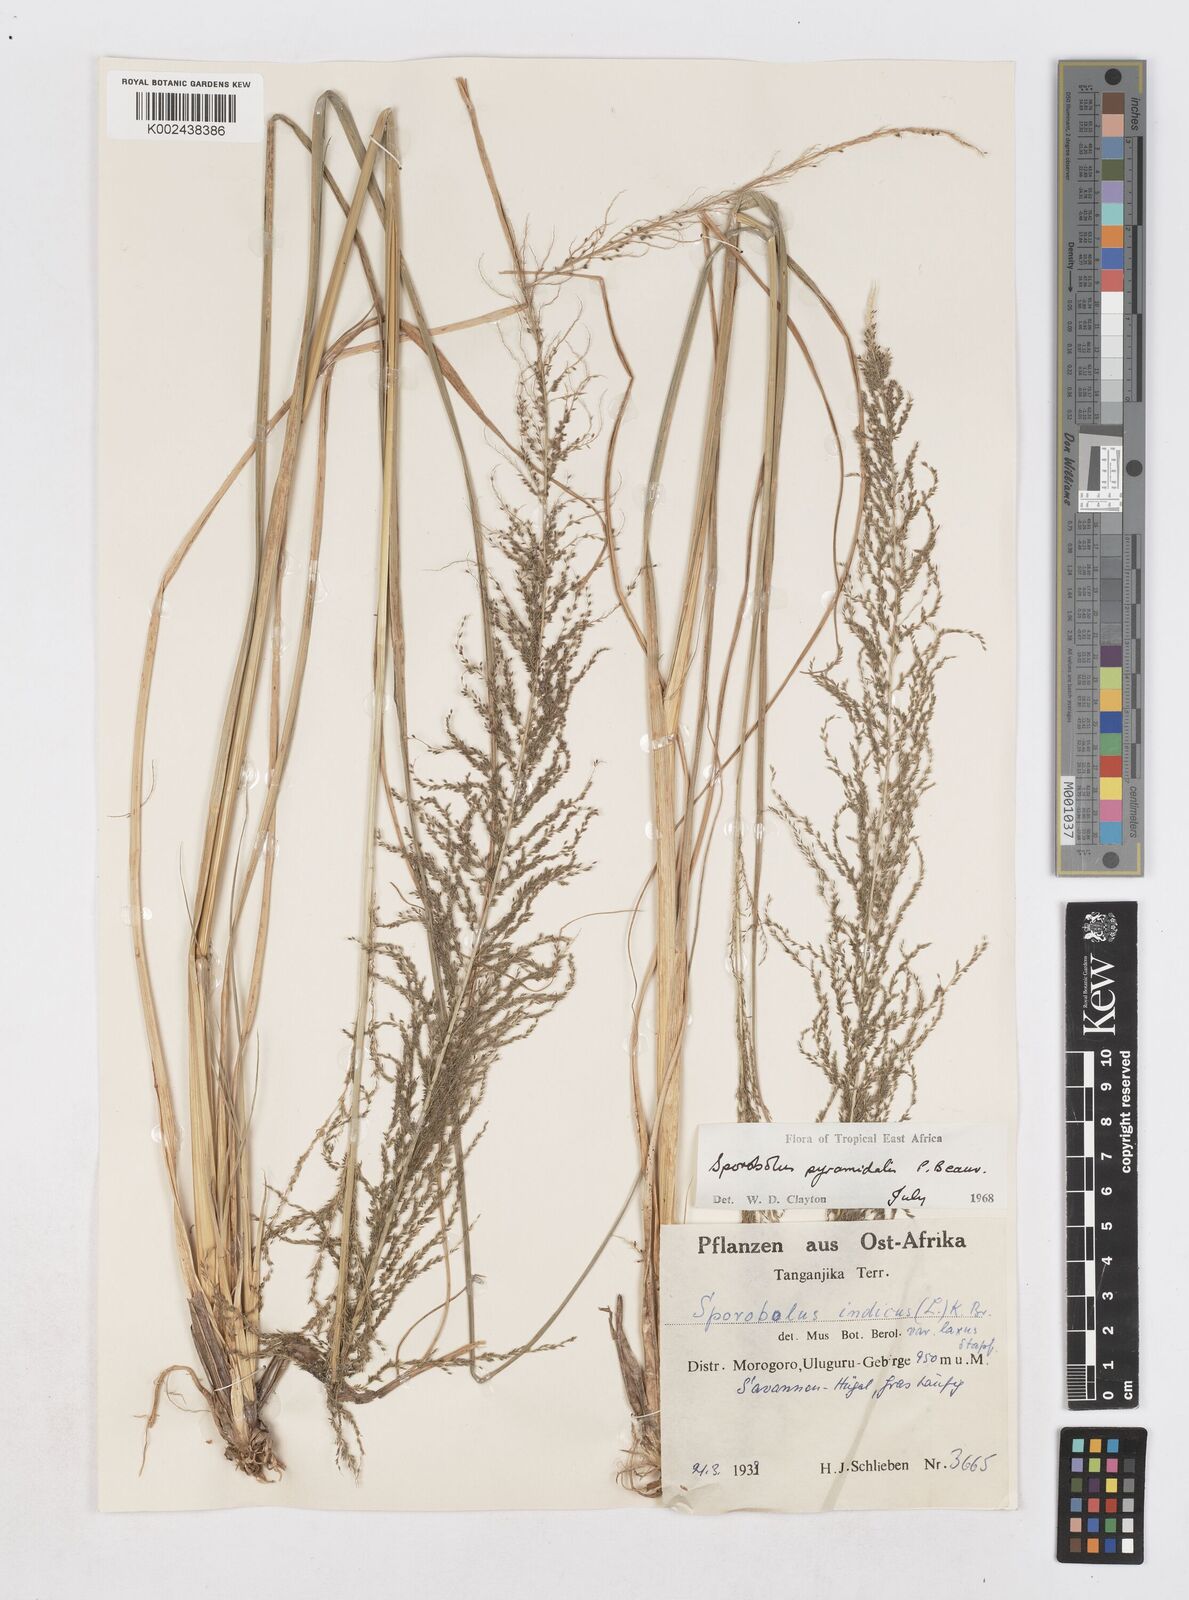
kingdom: Plantae
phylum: Tracheophyta
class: Liliopsida
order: Poales
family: Poaceae
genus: Sporobolus
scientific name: Sporobolus pyramidalis
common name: West indian dropseed
